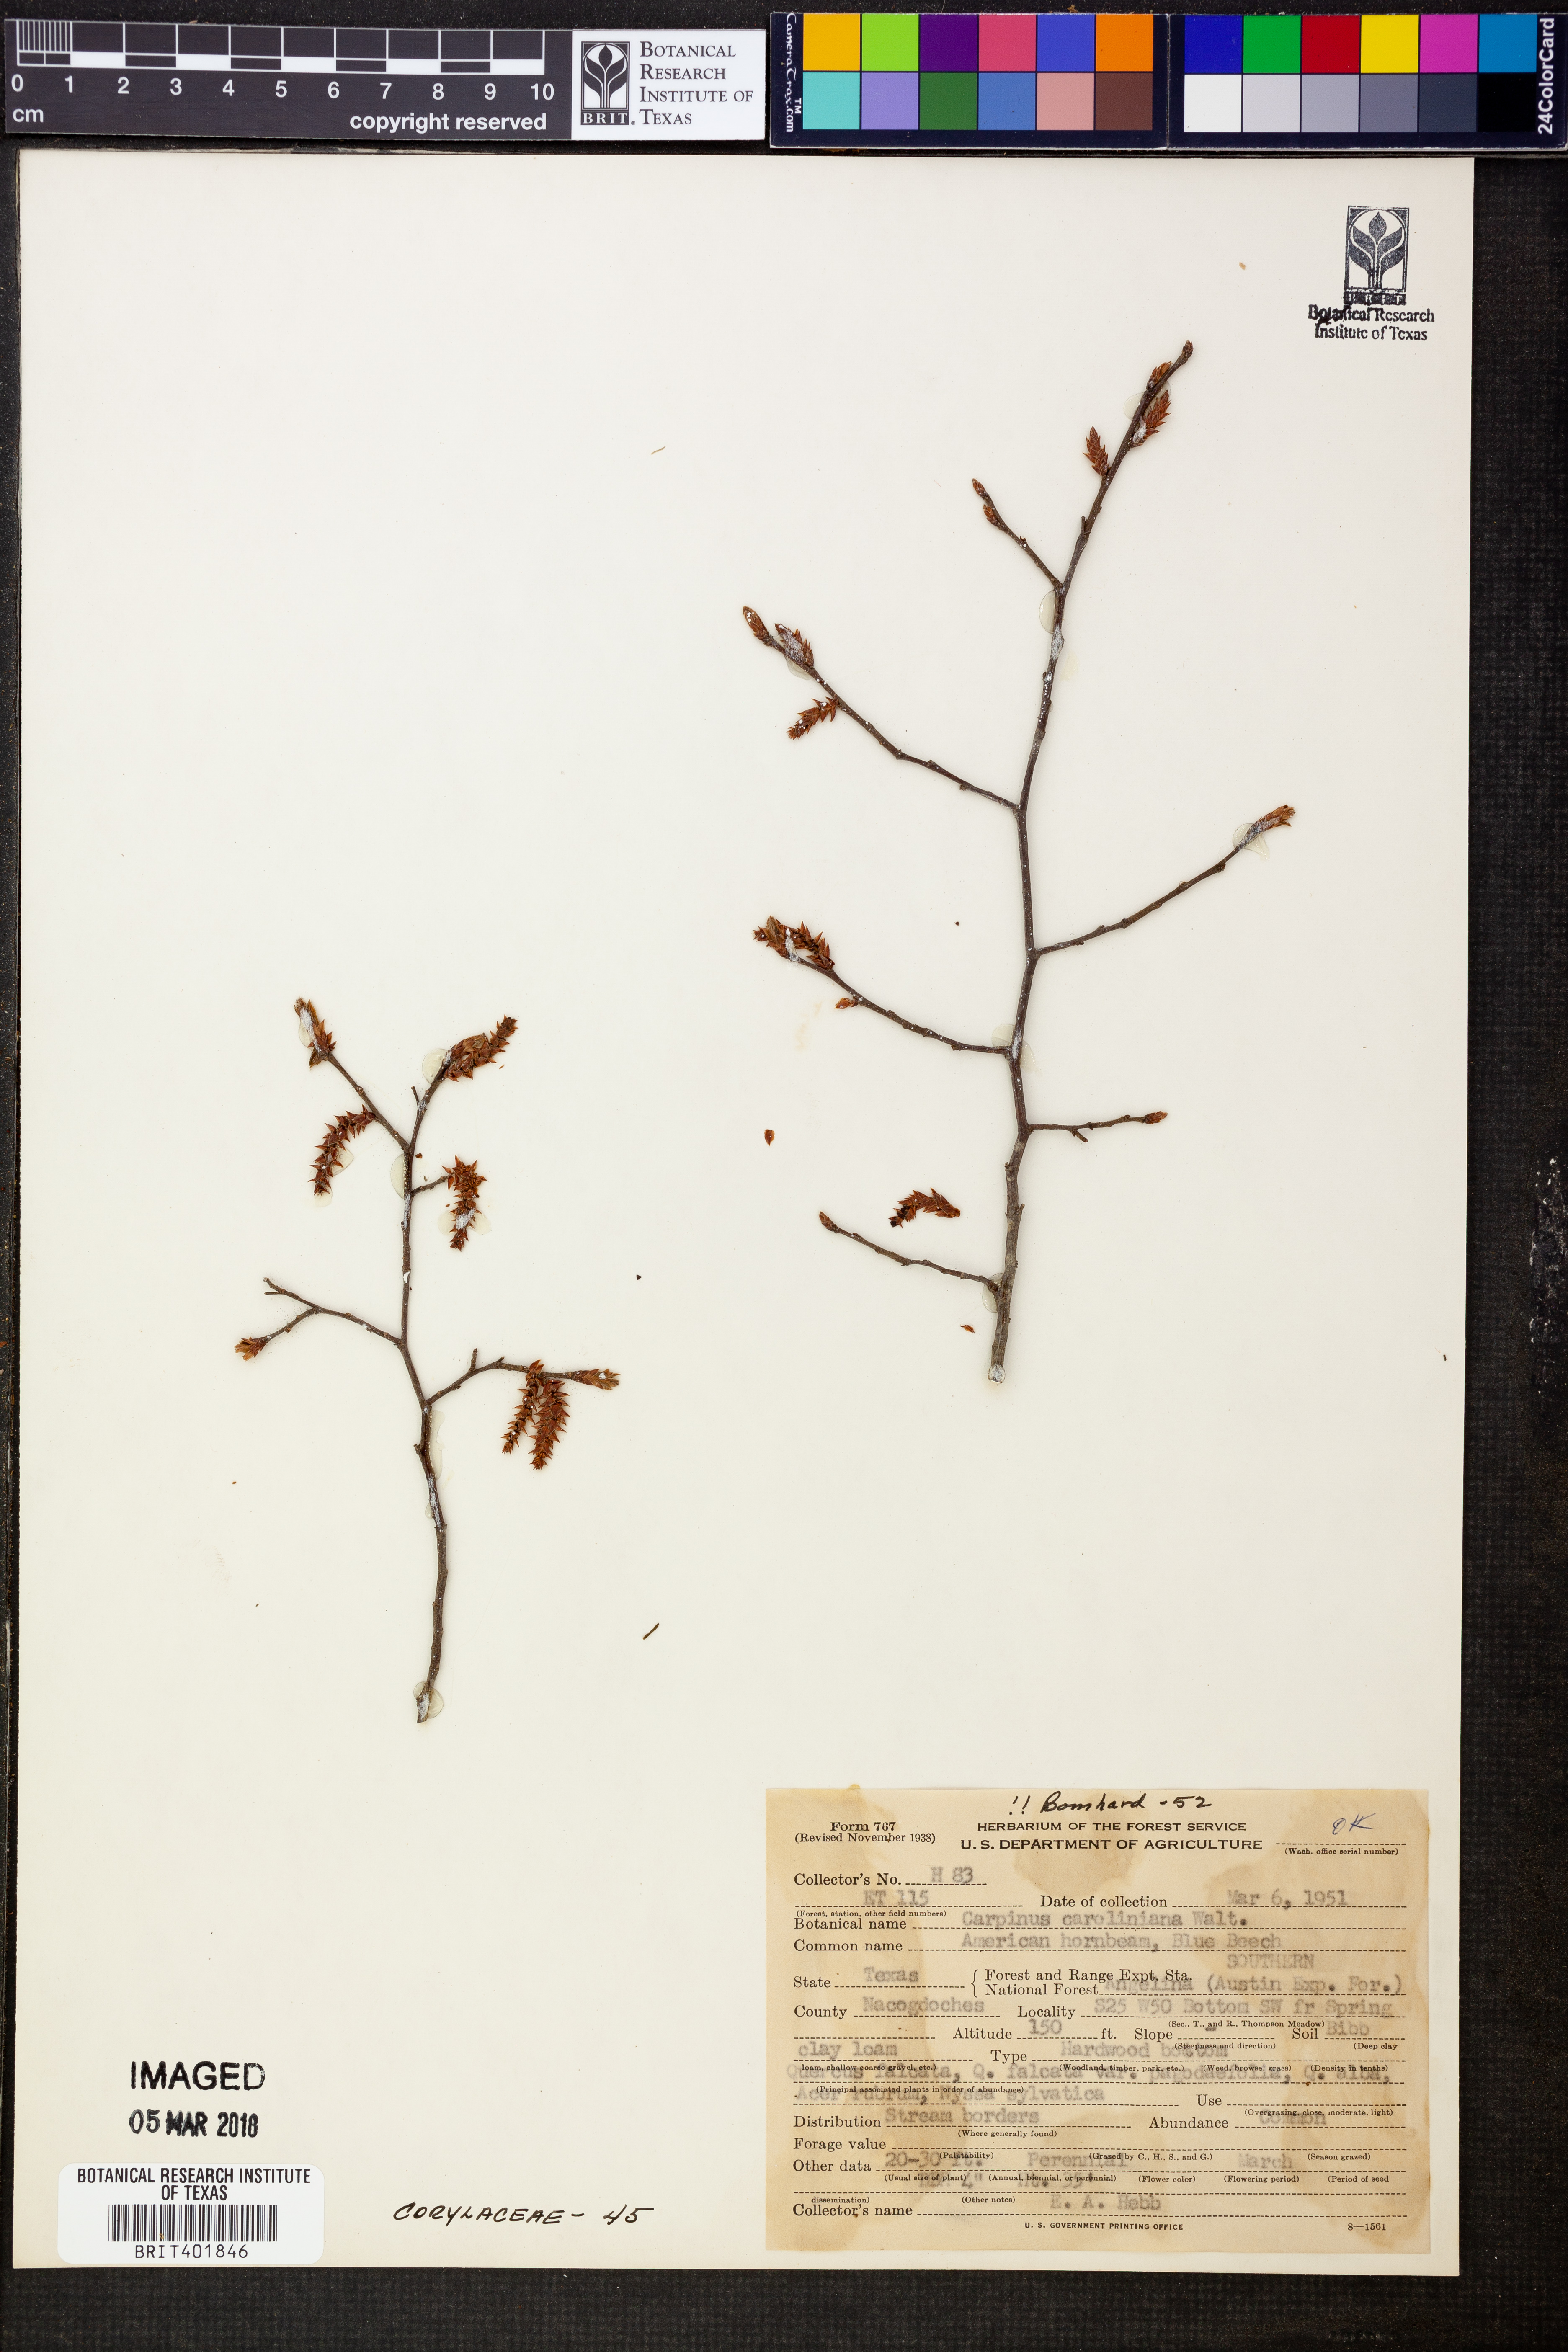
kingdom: Plantae
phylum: Tracheophyta
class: Magnoliopsida
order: Fagales
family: Betulaceae
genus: Carpinus
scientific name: Carpinus caroliniana
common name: American hornbeam
